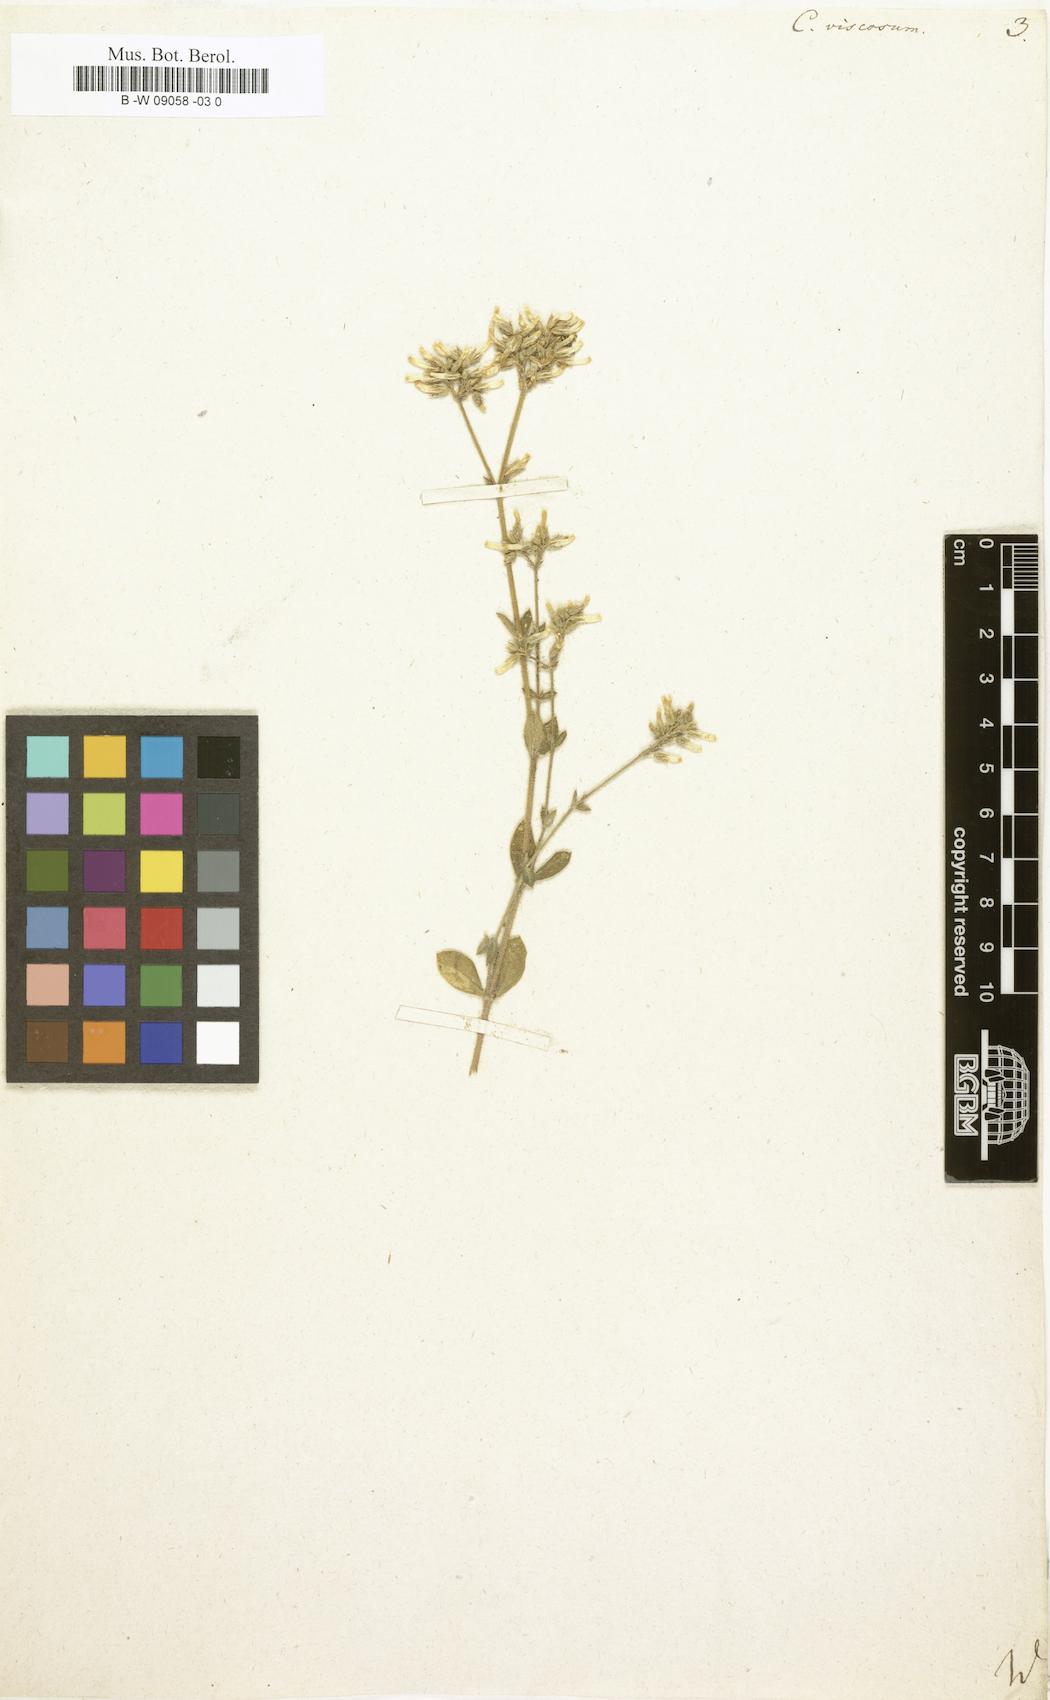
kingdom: Plantae
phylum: Tracheophyta
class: Magnoliopsida
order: Caryophyllales
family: Caryophyllaceae
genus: Cerastium
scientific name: Cerastium holosteoides
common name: Big chickweed
